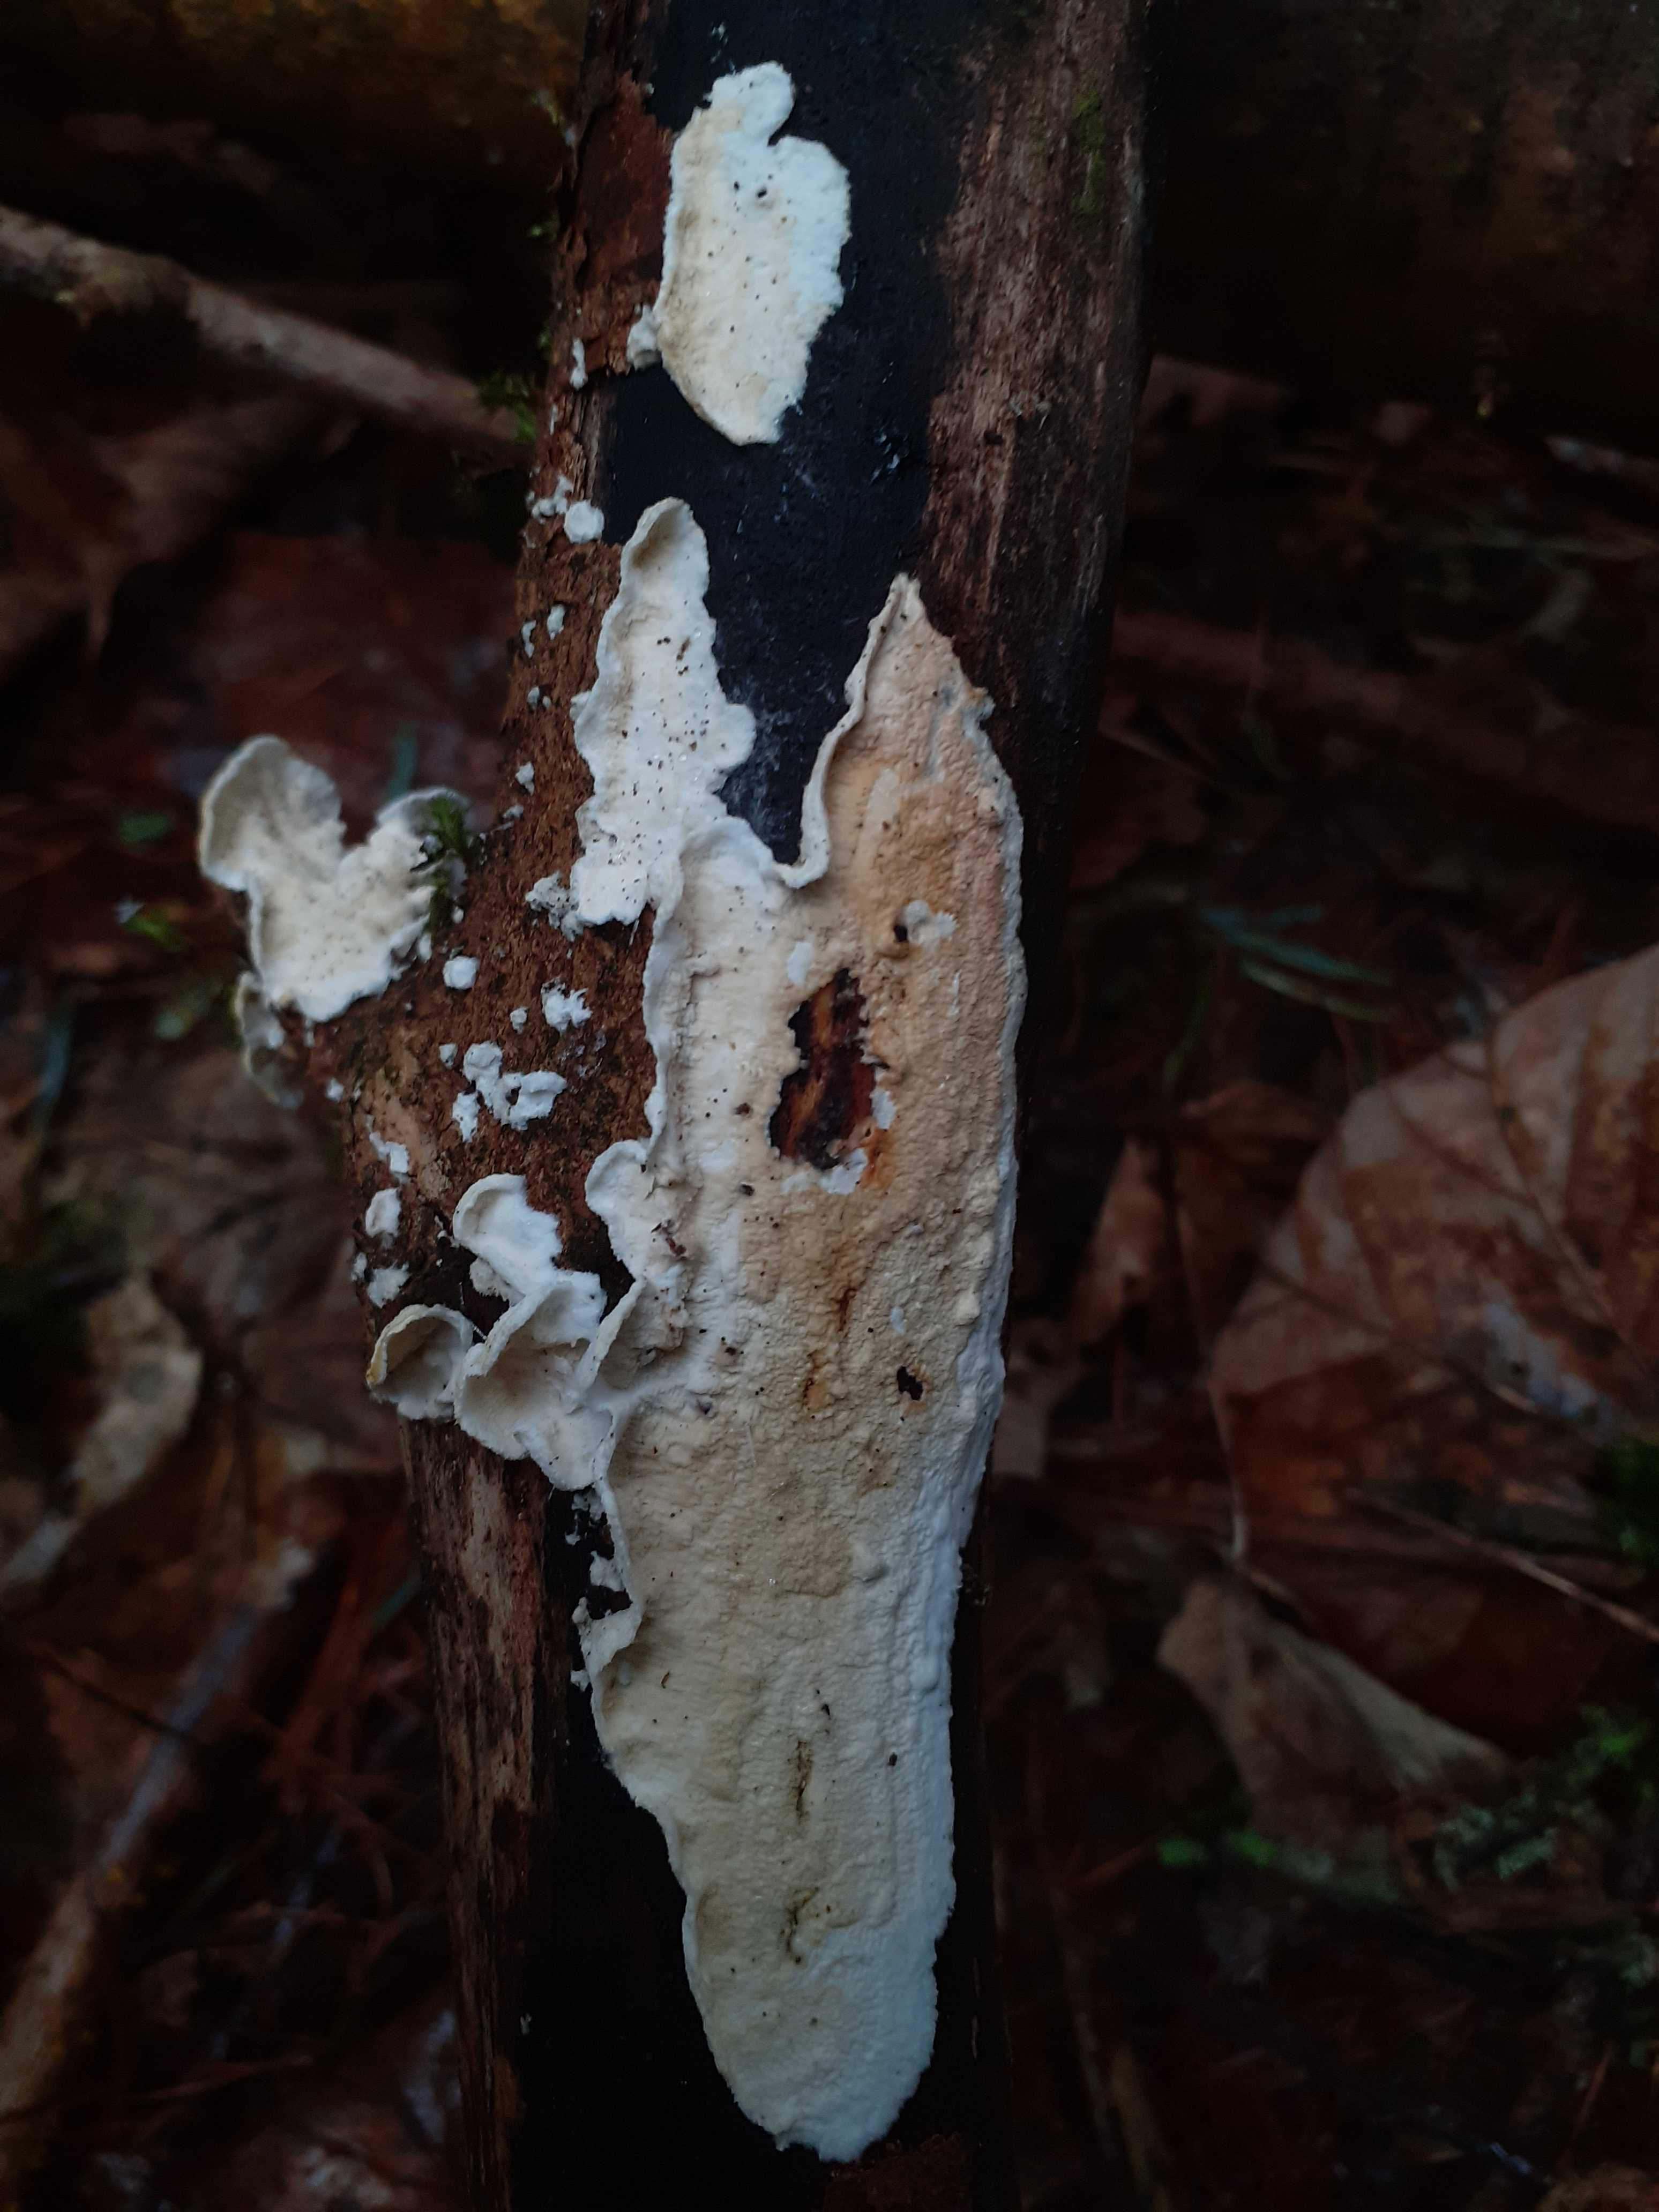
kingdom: Fungi
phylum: Basidiomycota
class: Agaricomycetes
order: Polyporales
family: Incrustoporiaceae
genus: Skeletocutis
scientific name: Skeletocutis amorpha
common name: orange krystalporesvamp
